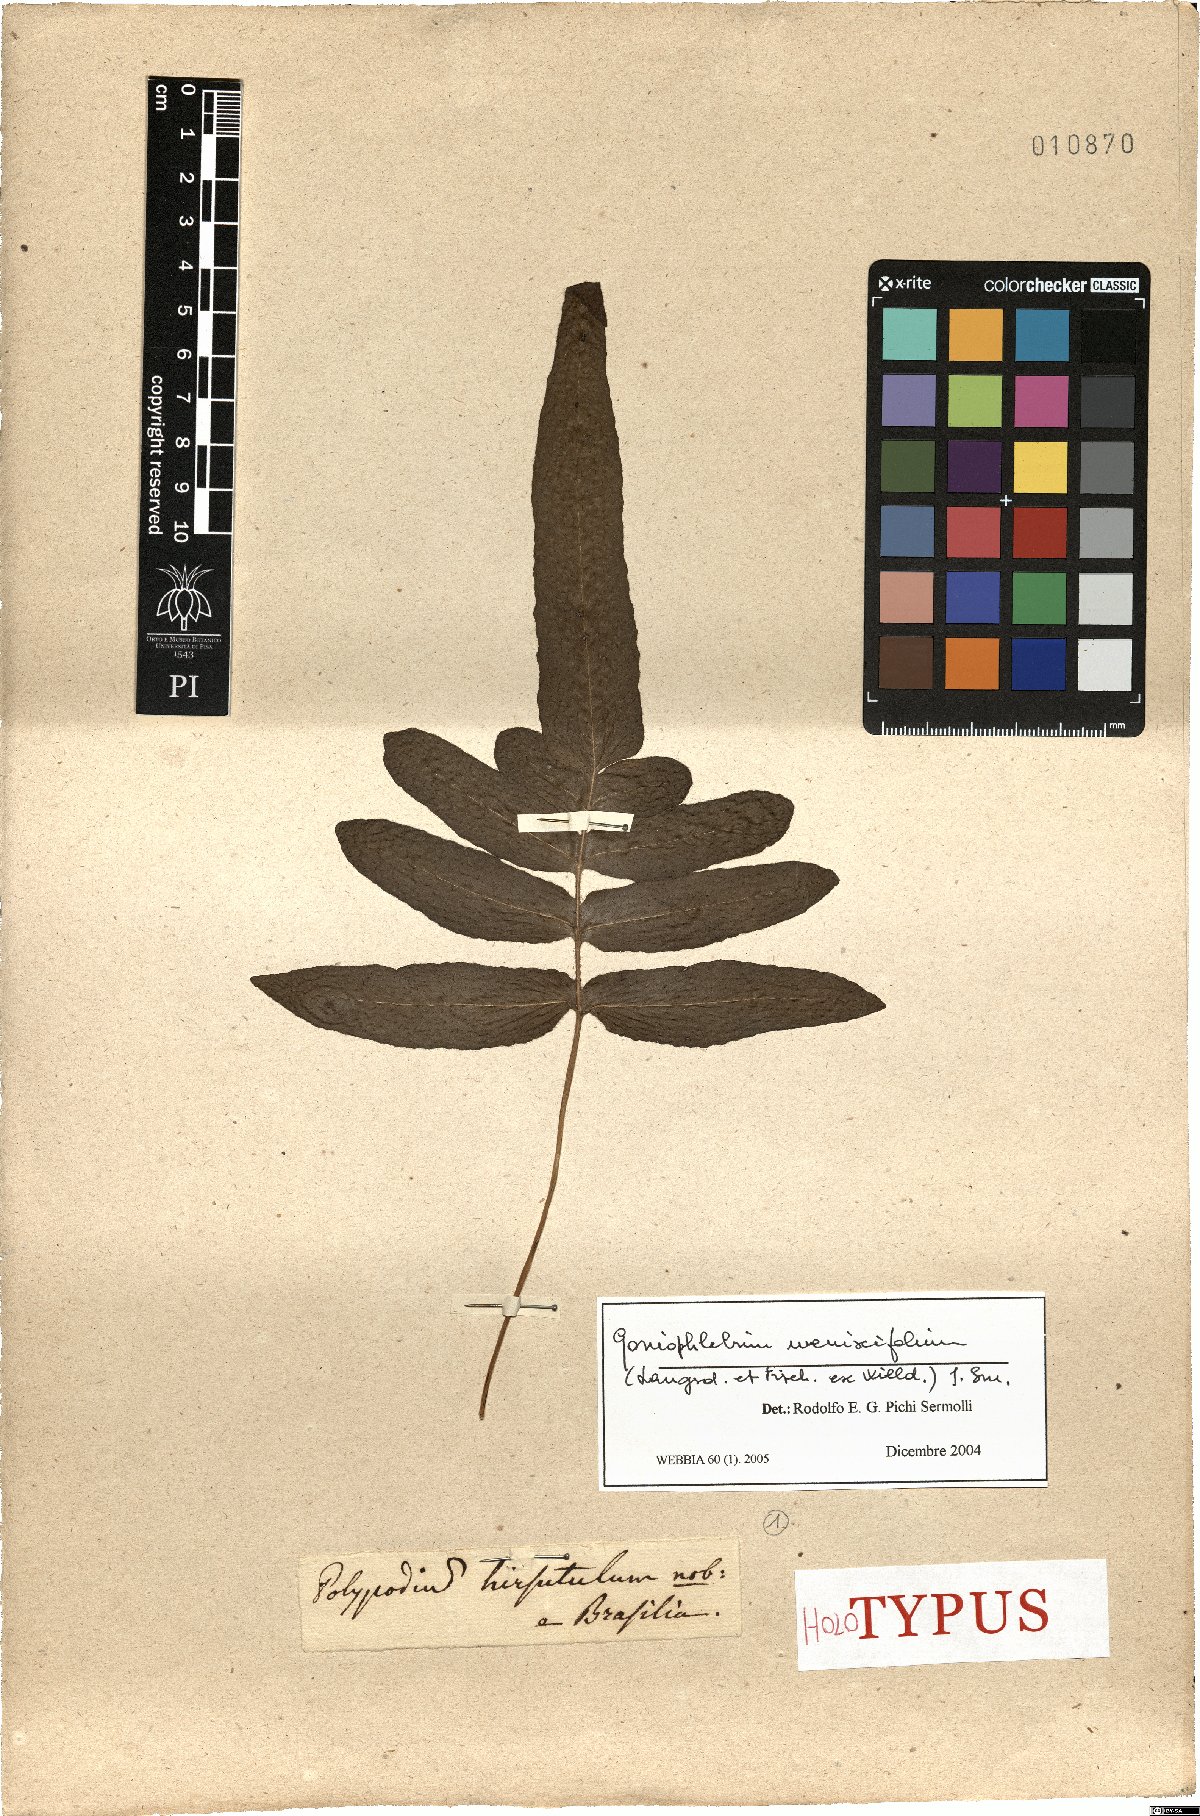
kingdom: Plantae
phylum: Tracheophyta
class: Polypodiopsida
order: Polypodiales
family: Polypodiaceae
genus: Serpocaulon
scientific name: Serpocaulon menisciifolium
